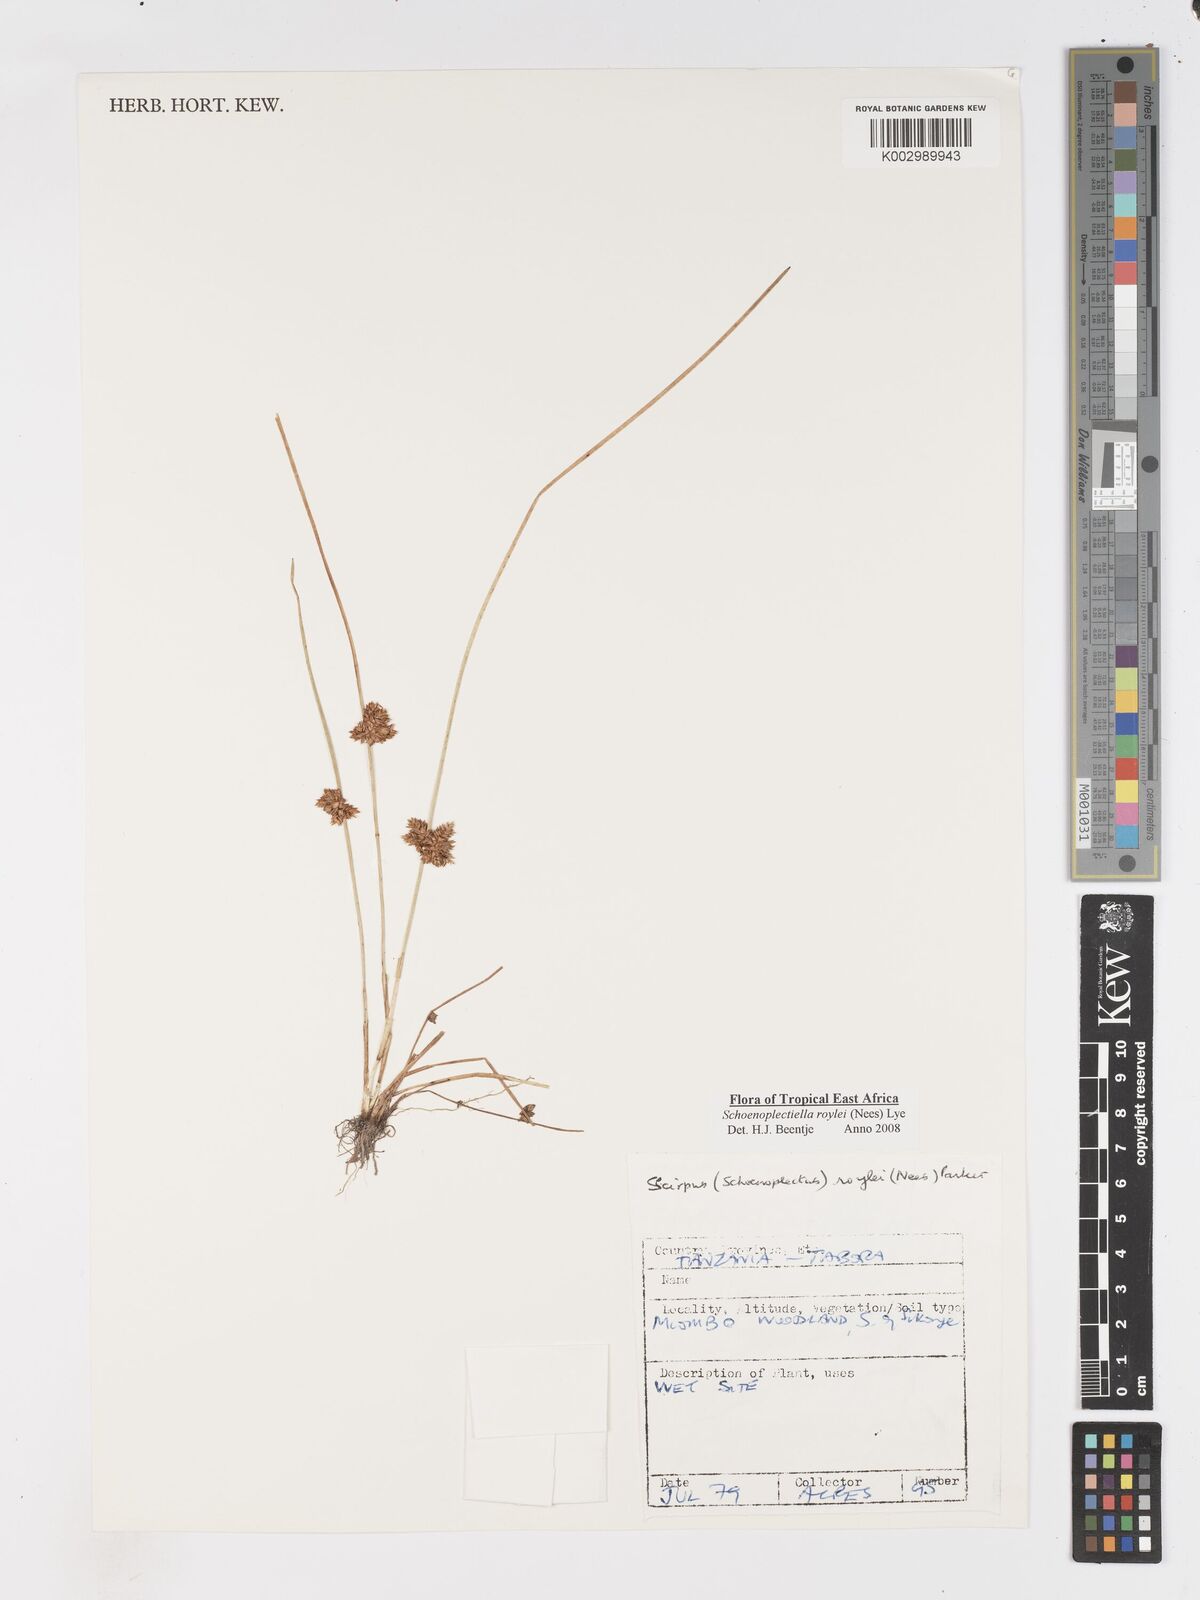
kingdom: Plantae
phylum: Tracheophyta
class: Liliopsida
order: Poales
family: Cyperaceae
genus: Schoenoplectiella
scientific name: Schoenoplectiella roylei
